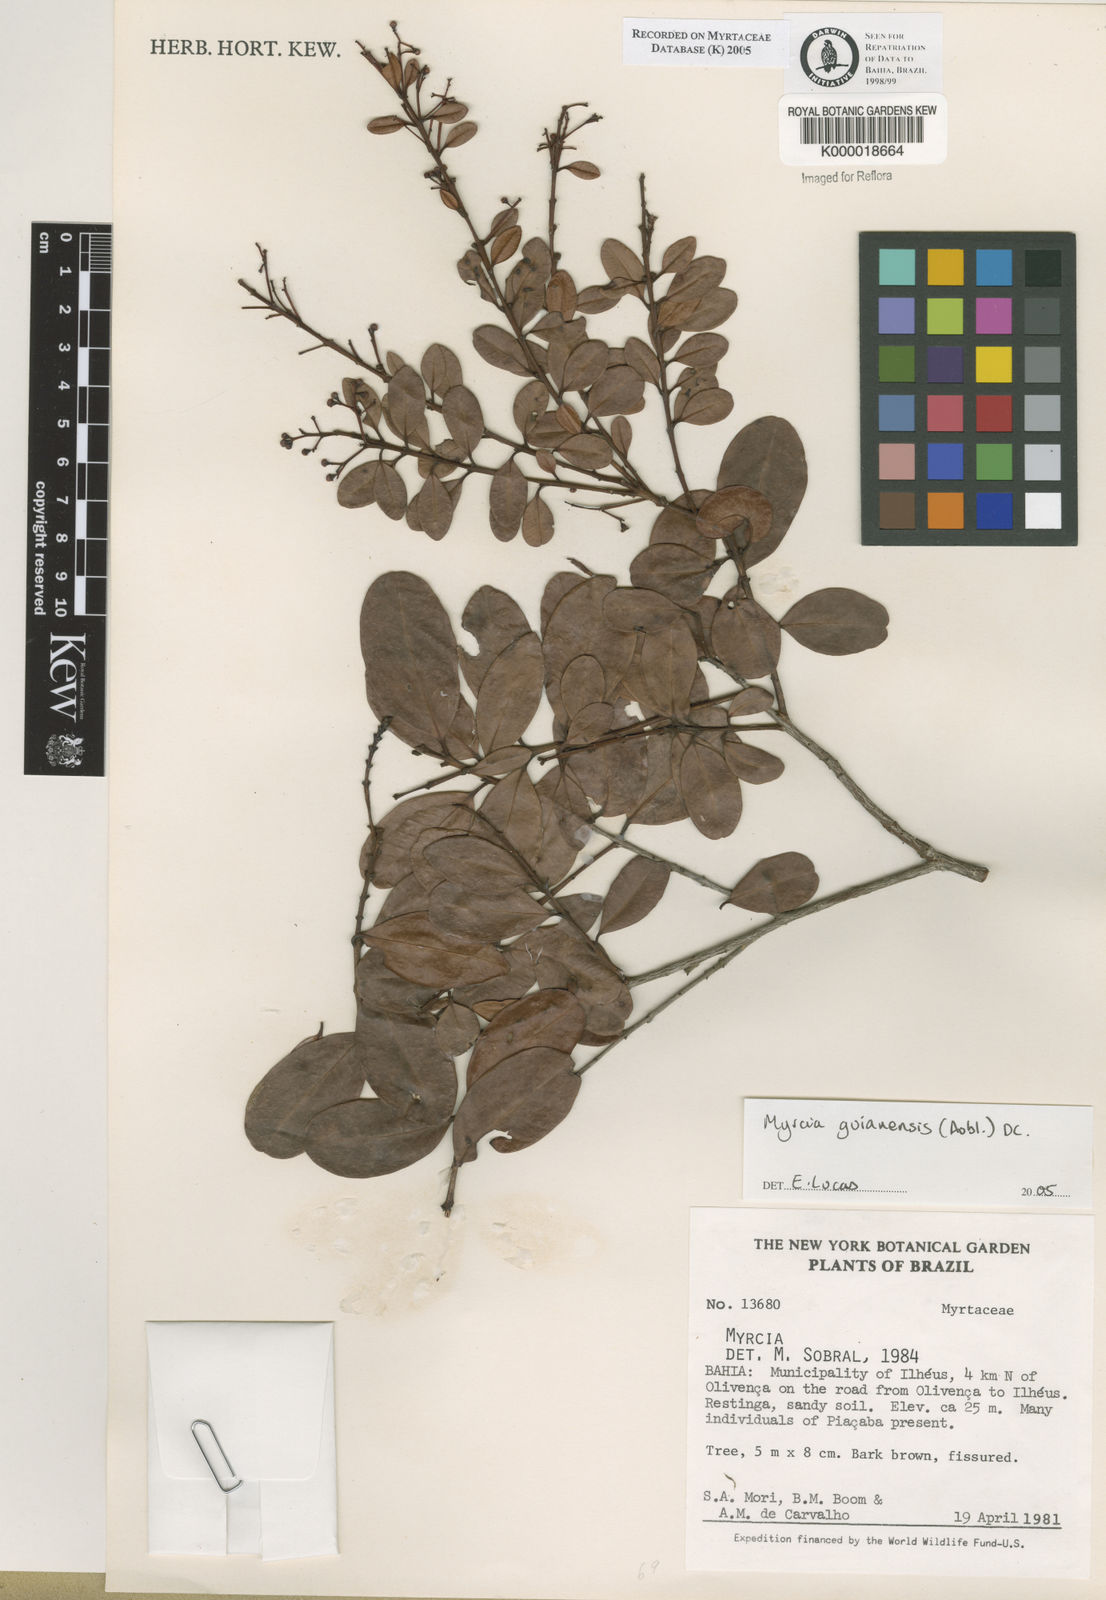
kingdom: Plantae
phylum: Tracheophyta
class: Magnoliopsida
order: Myrtales
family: Myrtaceae
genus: Myrcia
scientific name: Myrcia
